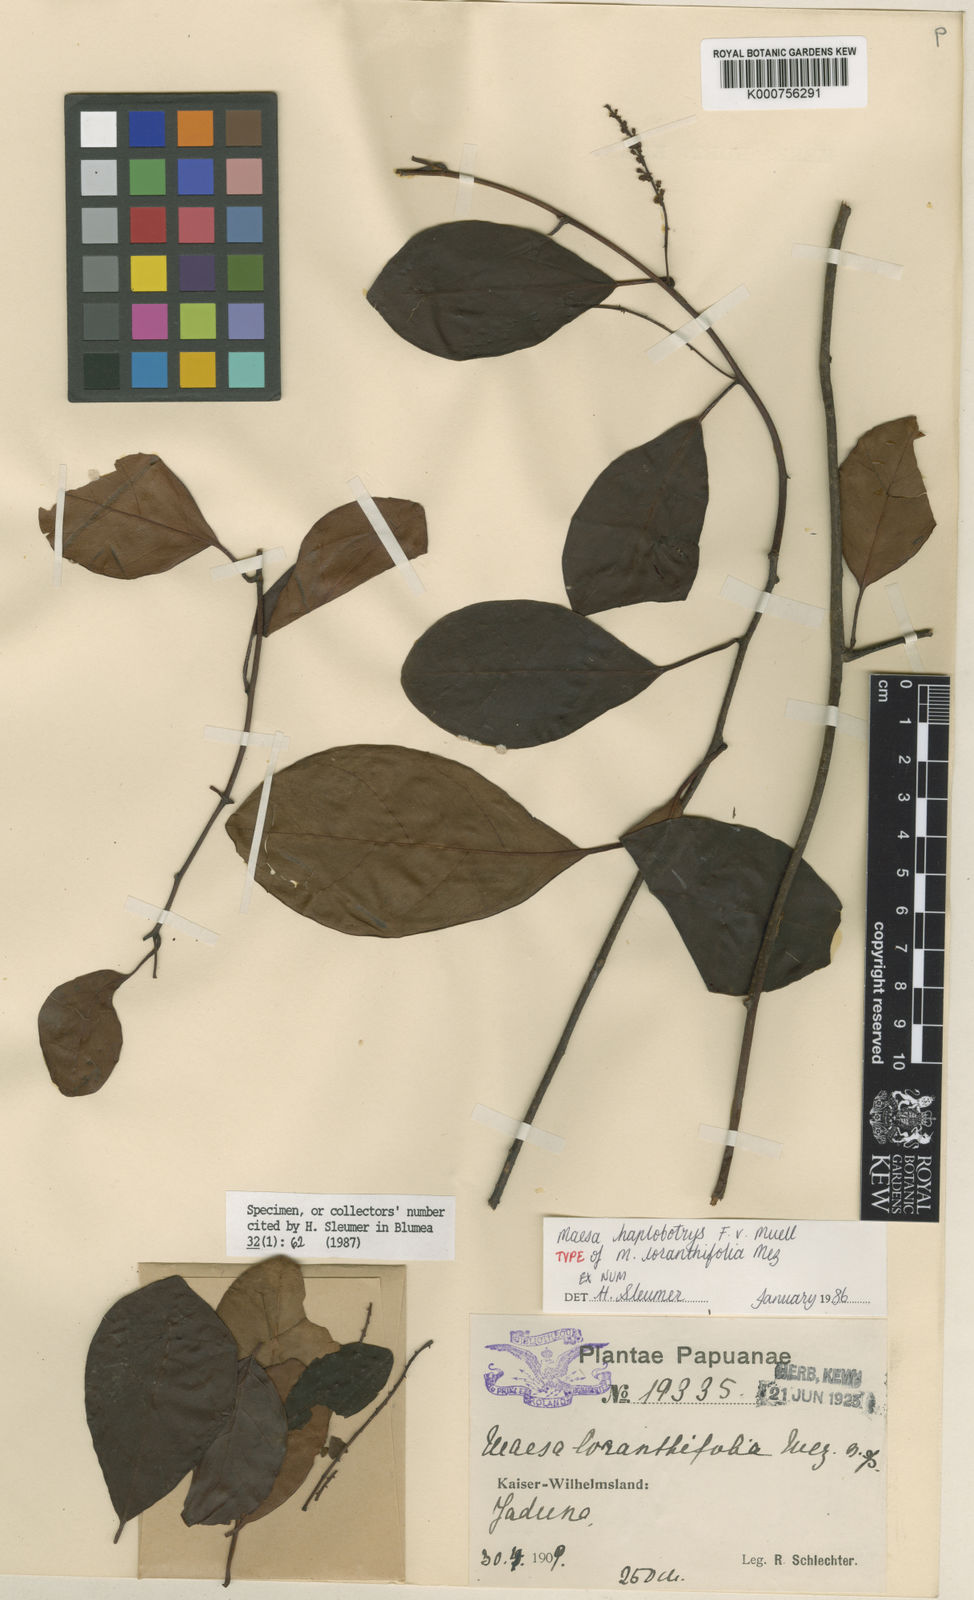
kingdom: Plantae
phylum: Tracheophyta
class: Magnoliopsida
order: Ericales
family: Primulaceae
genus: Maesa
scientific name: Maesa haplobotrys
